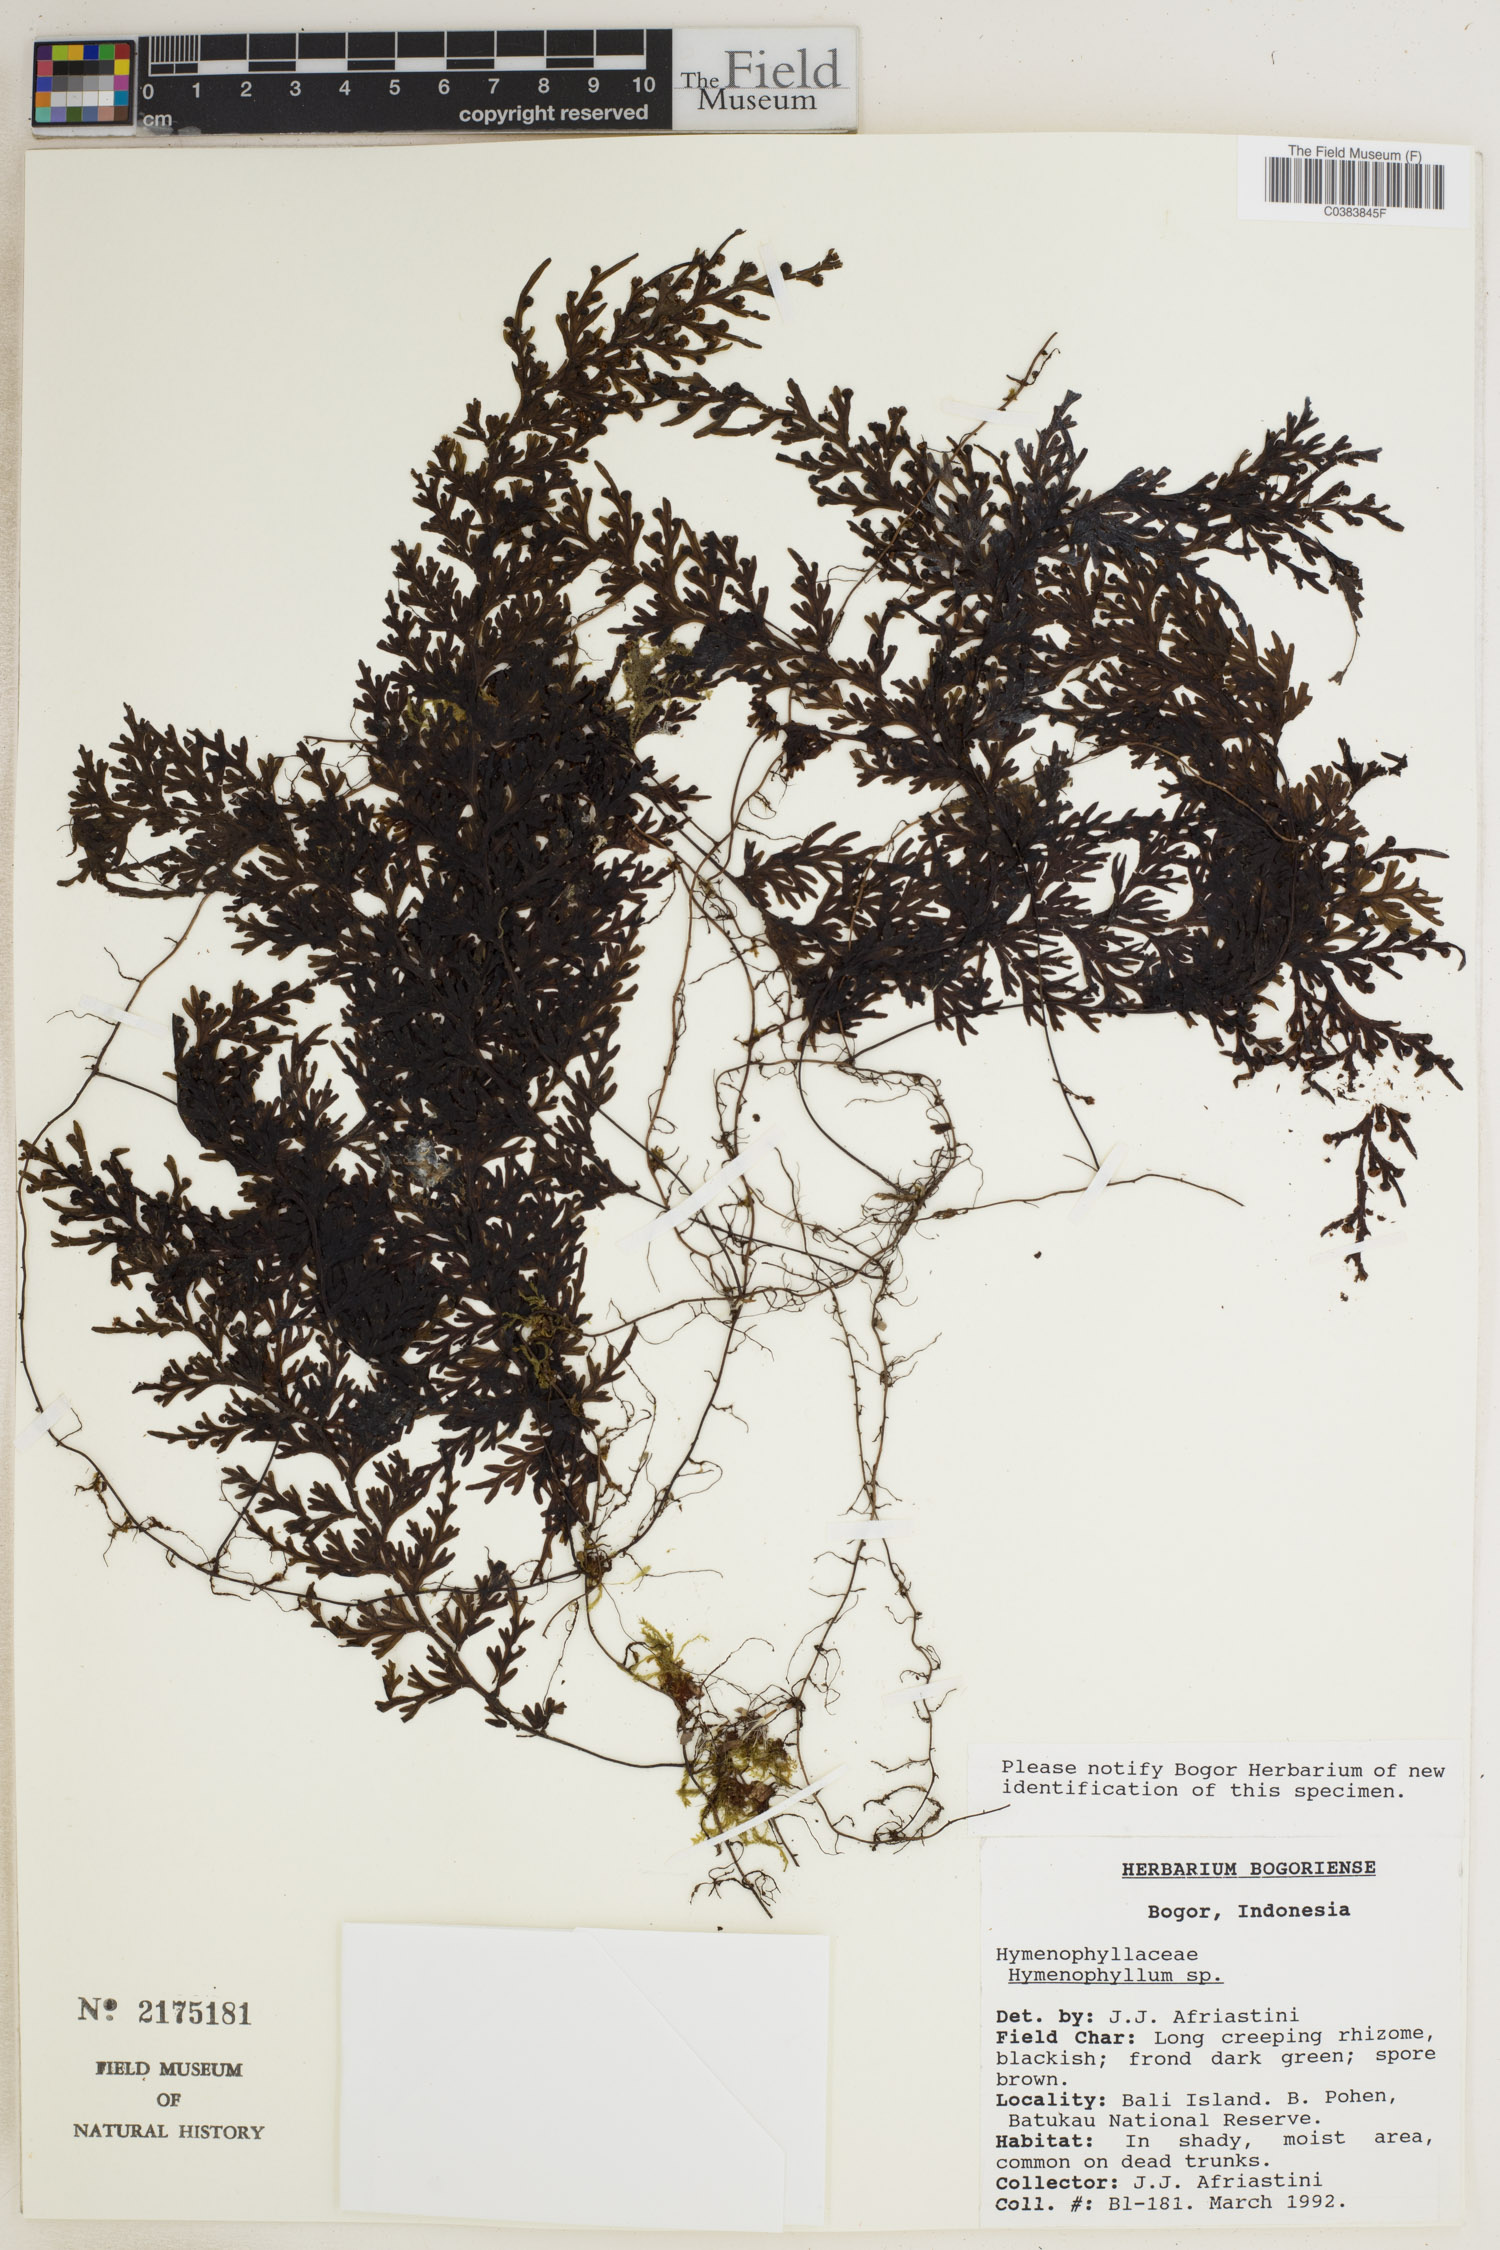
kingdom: Plantae
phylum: Tracheophyta
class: Polypodiopsida
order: Hymenophyllales
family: Hymenophyllaceae
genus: Hymenophyllum
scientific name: Hymenophyllum
